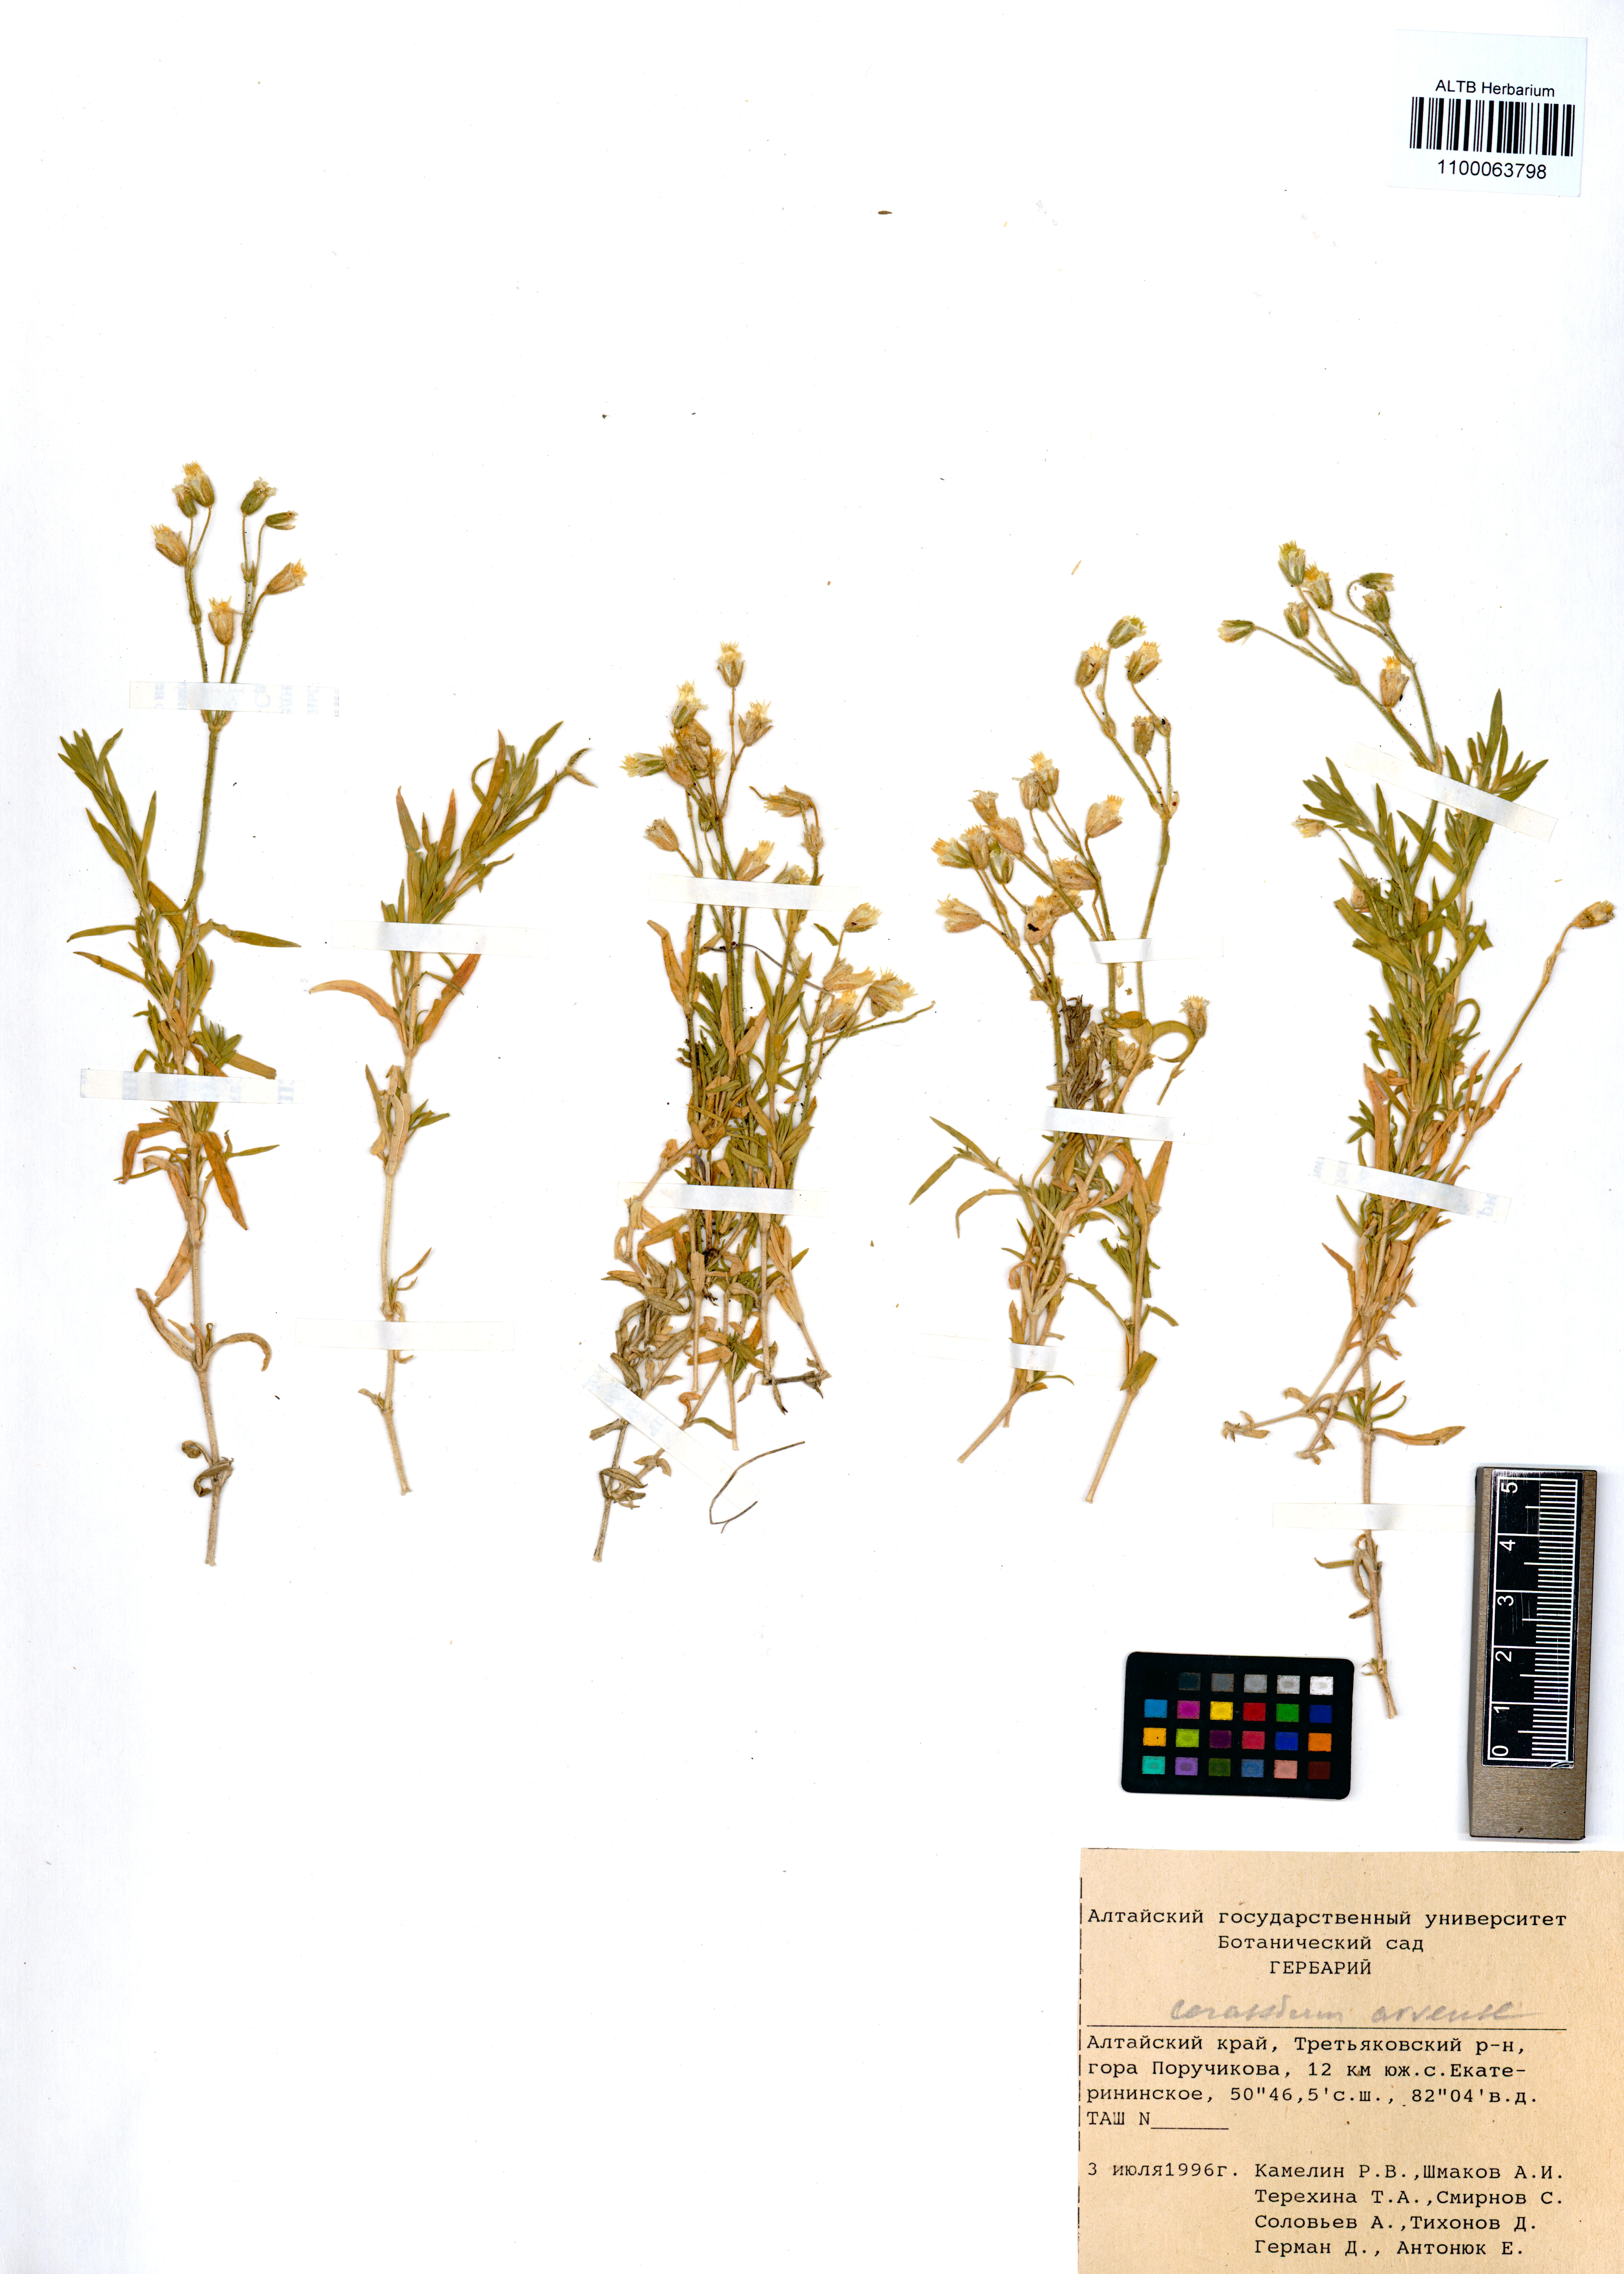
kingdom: Plantae
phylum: Tracheophyta
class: Magnoliopsida
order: Caryophyllales
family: Caryophyllaceae
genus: Cerastium
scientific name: Cerastium arvense
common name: Field mouse-ear
